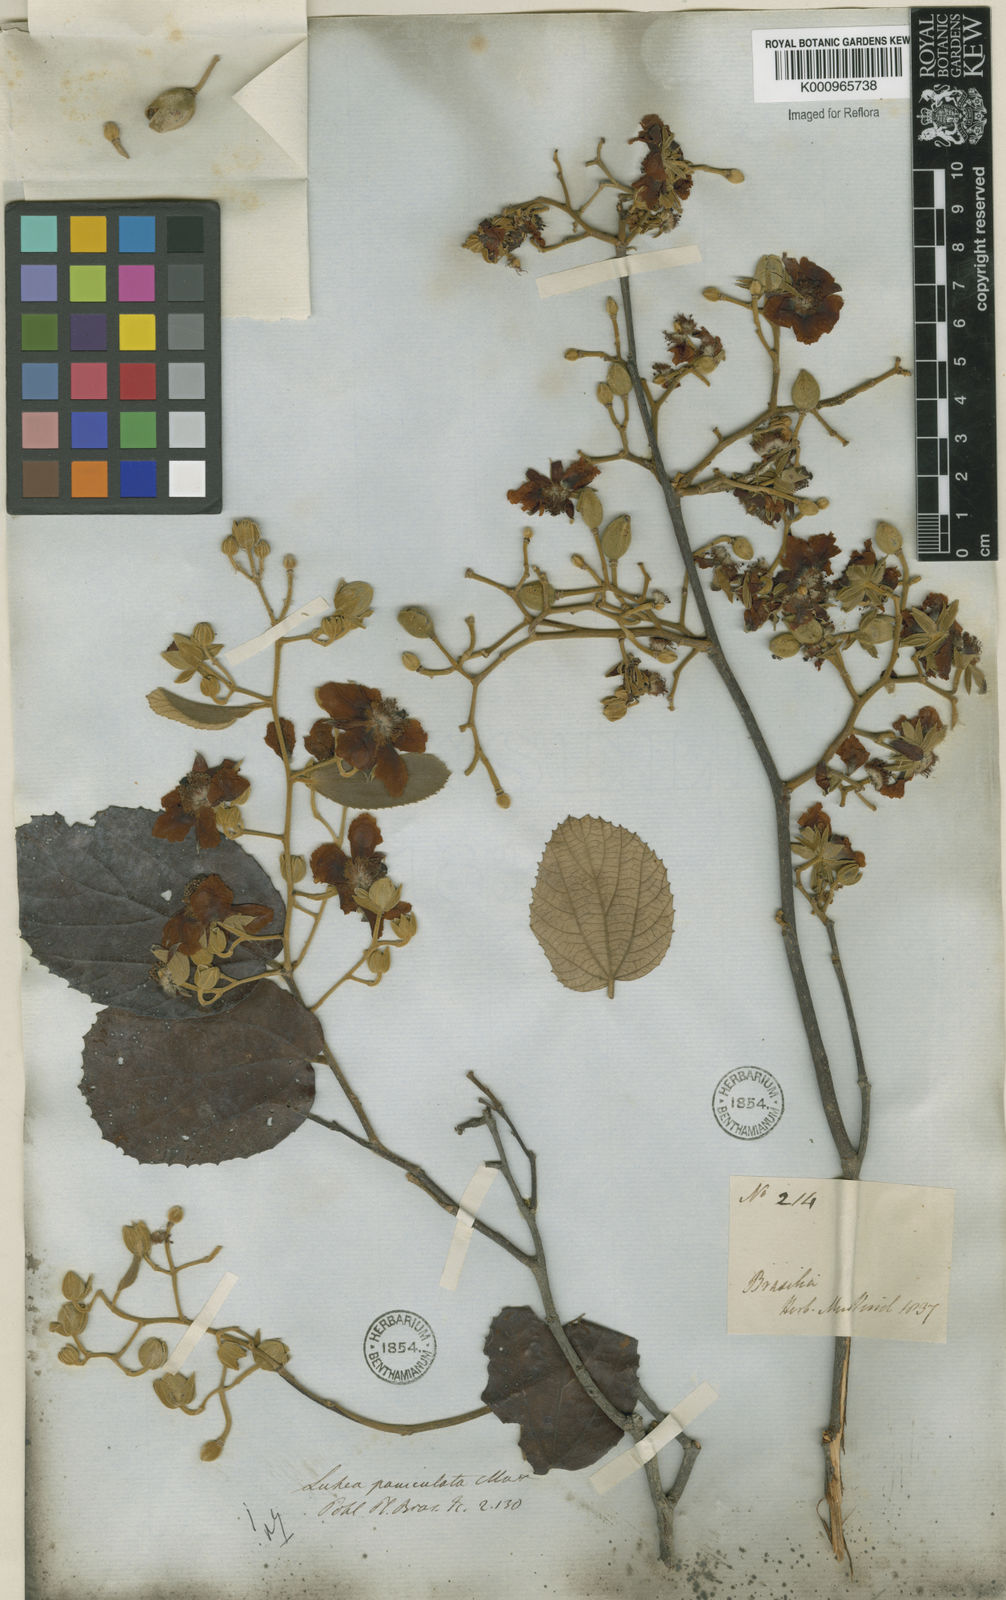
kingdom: Plantae
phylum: Tracheophyta
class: Magnoliopsida
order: Malvales
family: Malvaceae
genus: Luehea
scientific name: Luehea paniculata
